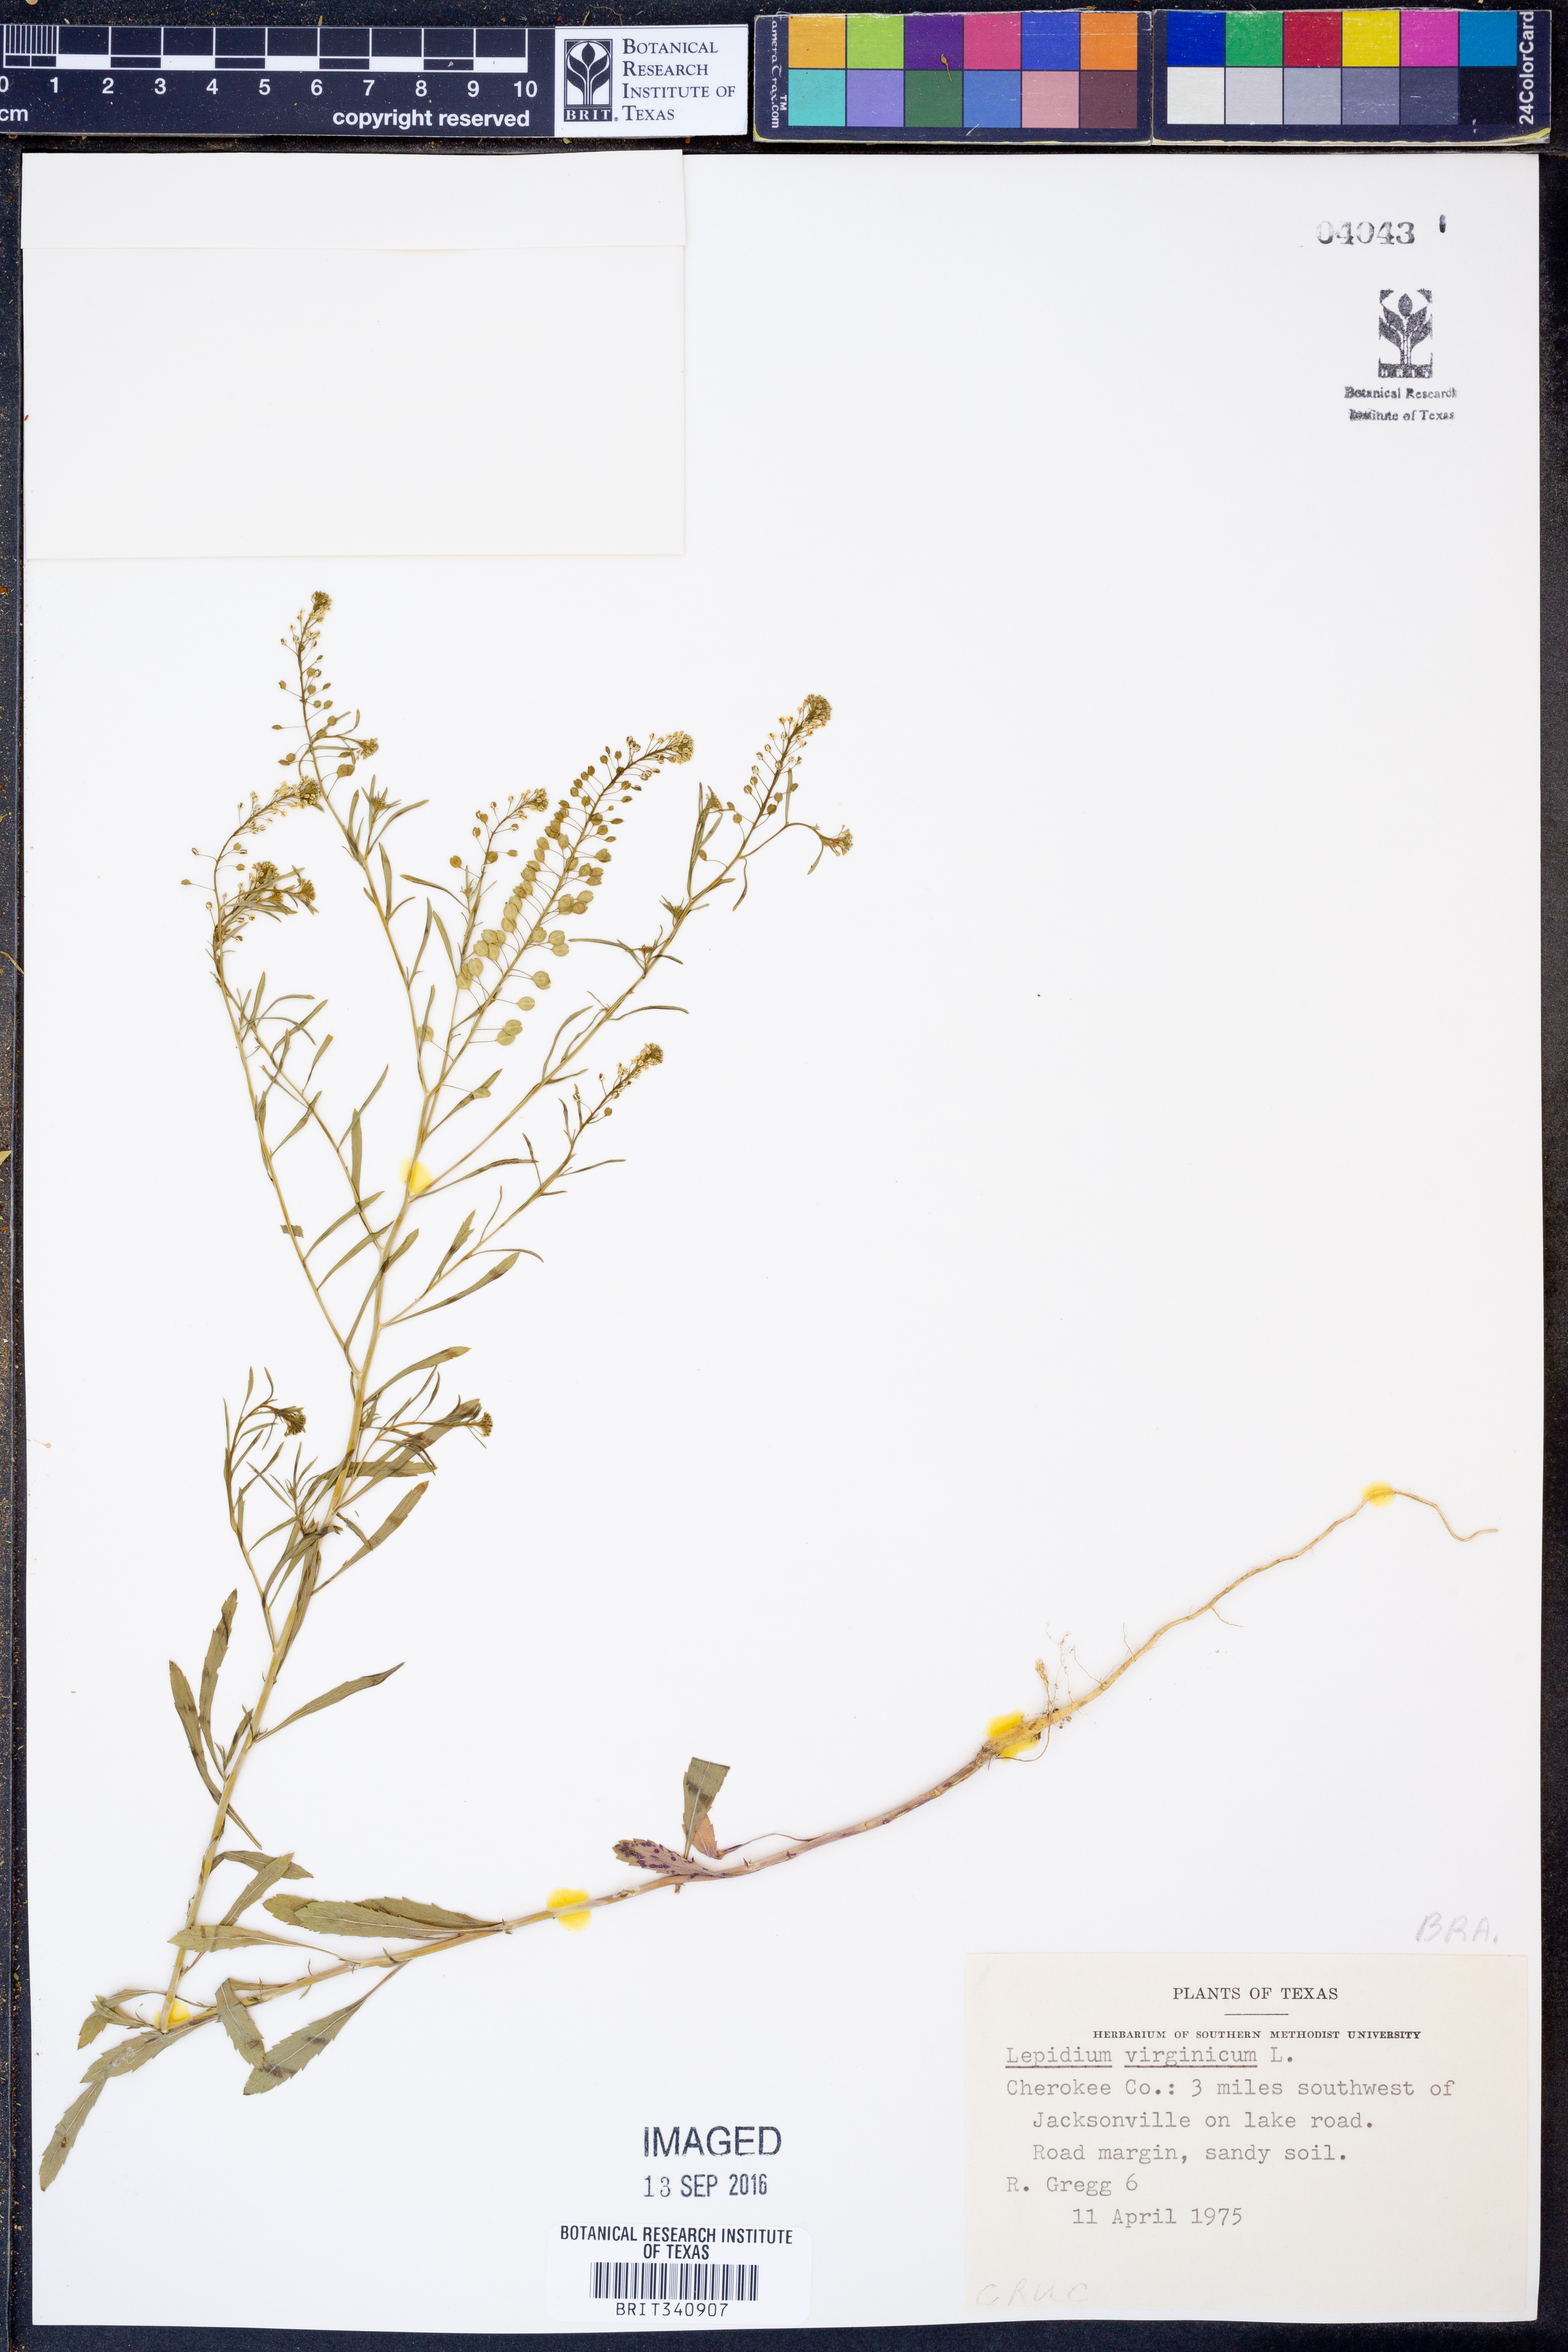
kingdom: Plantae
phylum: Tracheophyta
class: Magnoliopsida
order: Brassicales
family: Brassicaceae
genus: Lepidium
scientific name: Lepidium virginicum
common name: Least pepperwort
